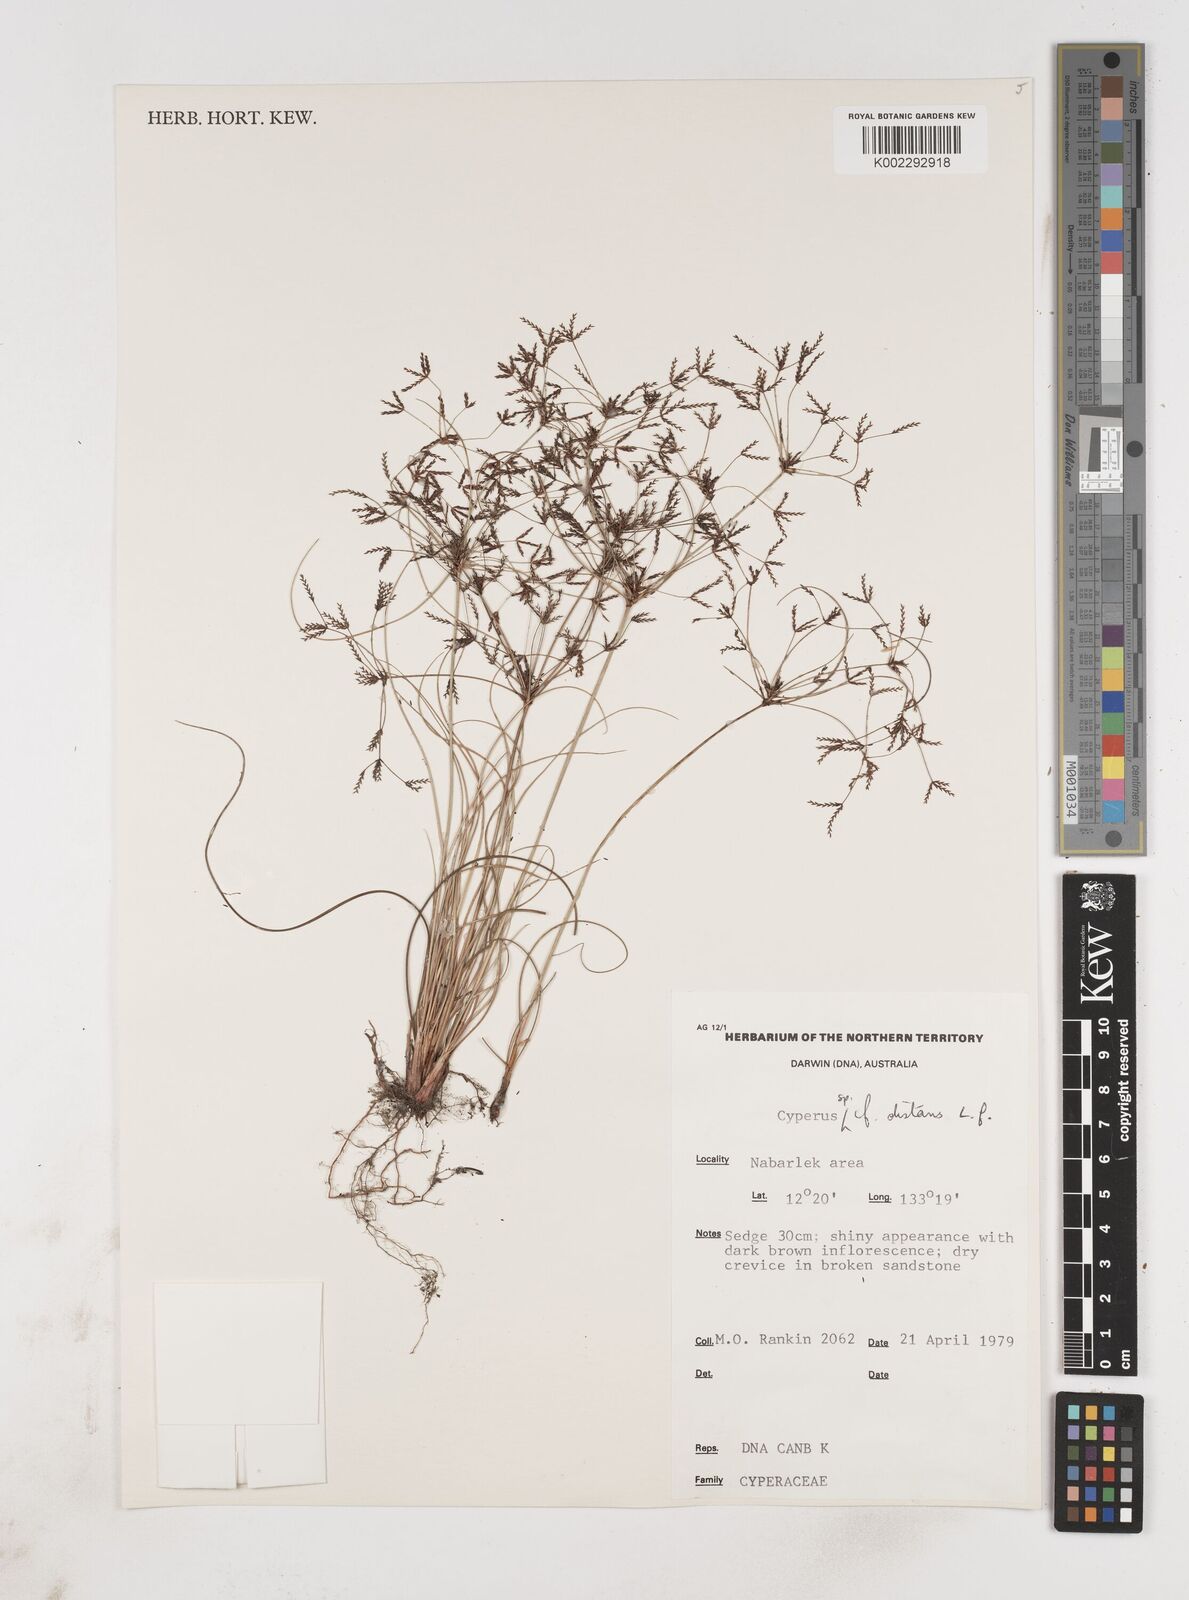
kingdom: Plantae
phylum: Tracheophyta
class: Liliopsida
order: Poales
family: Cyperaceae
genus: Cyperus
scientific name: Cyperus distans
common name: Slender cyperus
